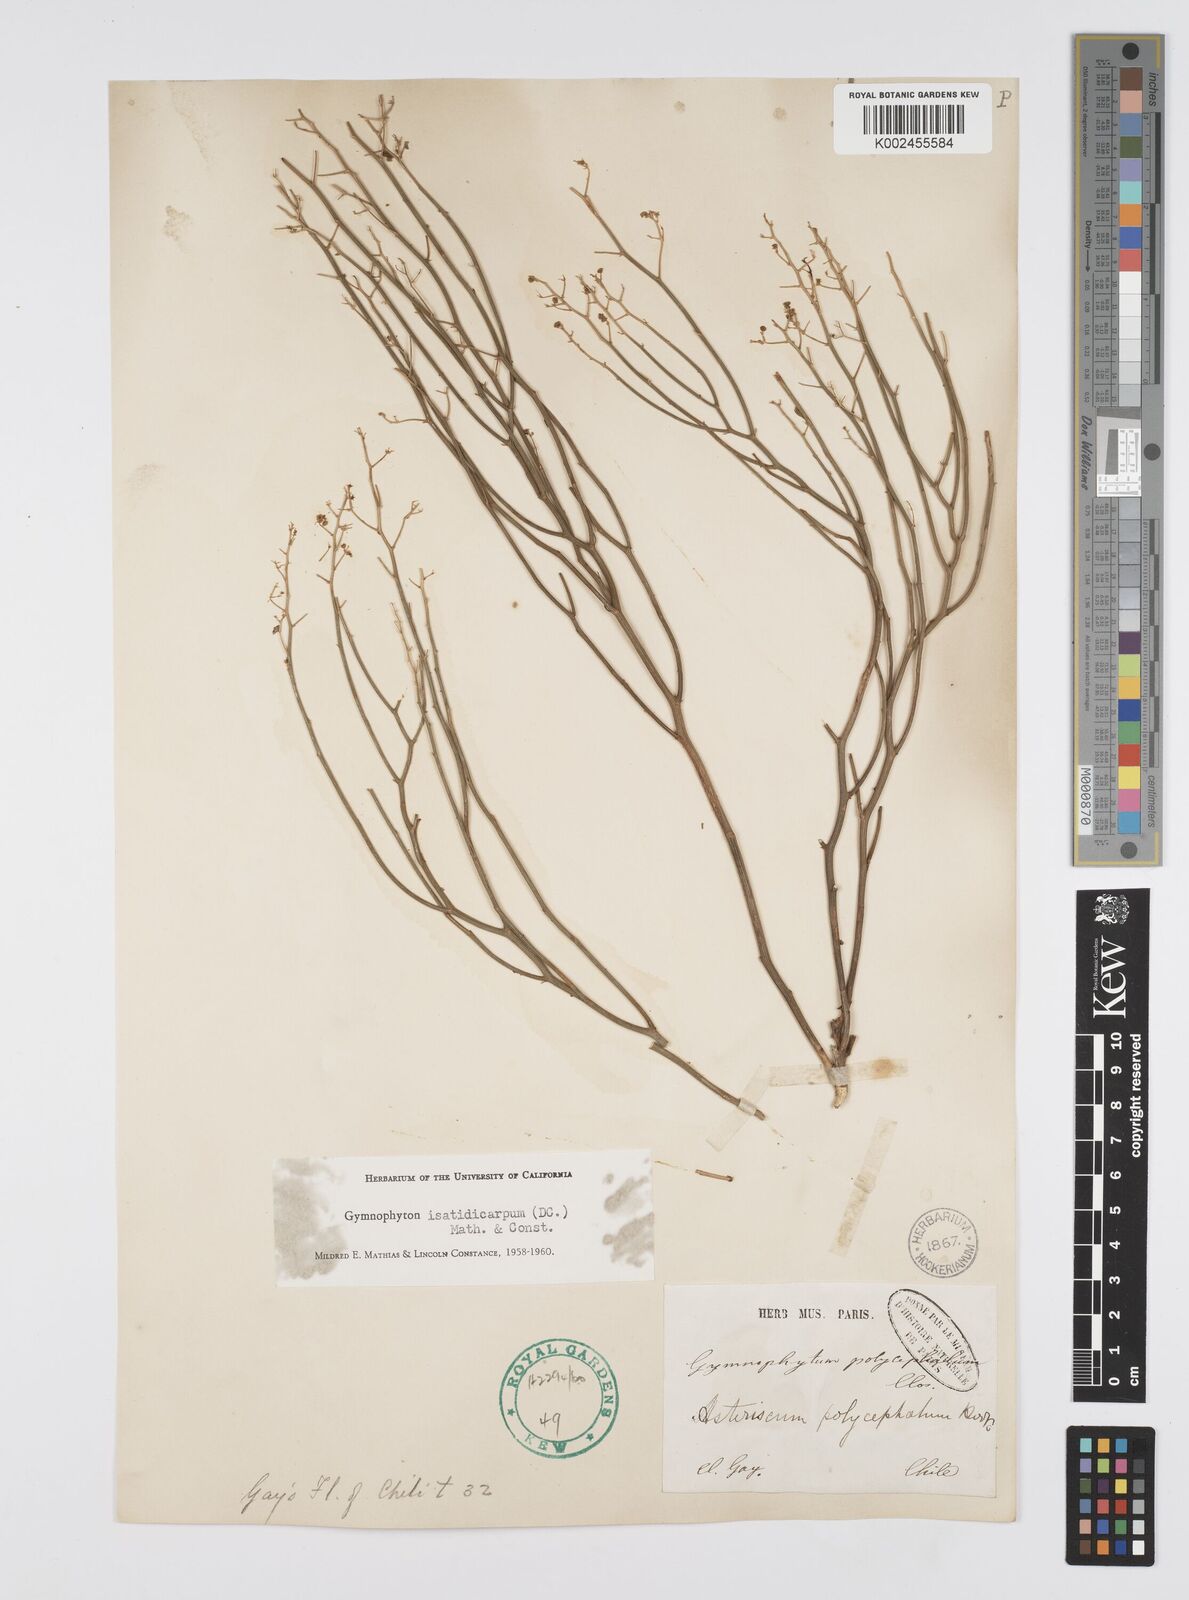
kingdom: Plantae
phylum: Tracheophyta
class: Magnoliopsida
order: Apiales
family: Apiaceae
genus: Gymnophyton
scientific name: Gymnophyton isatidicarpum
